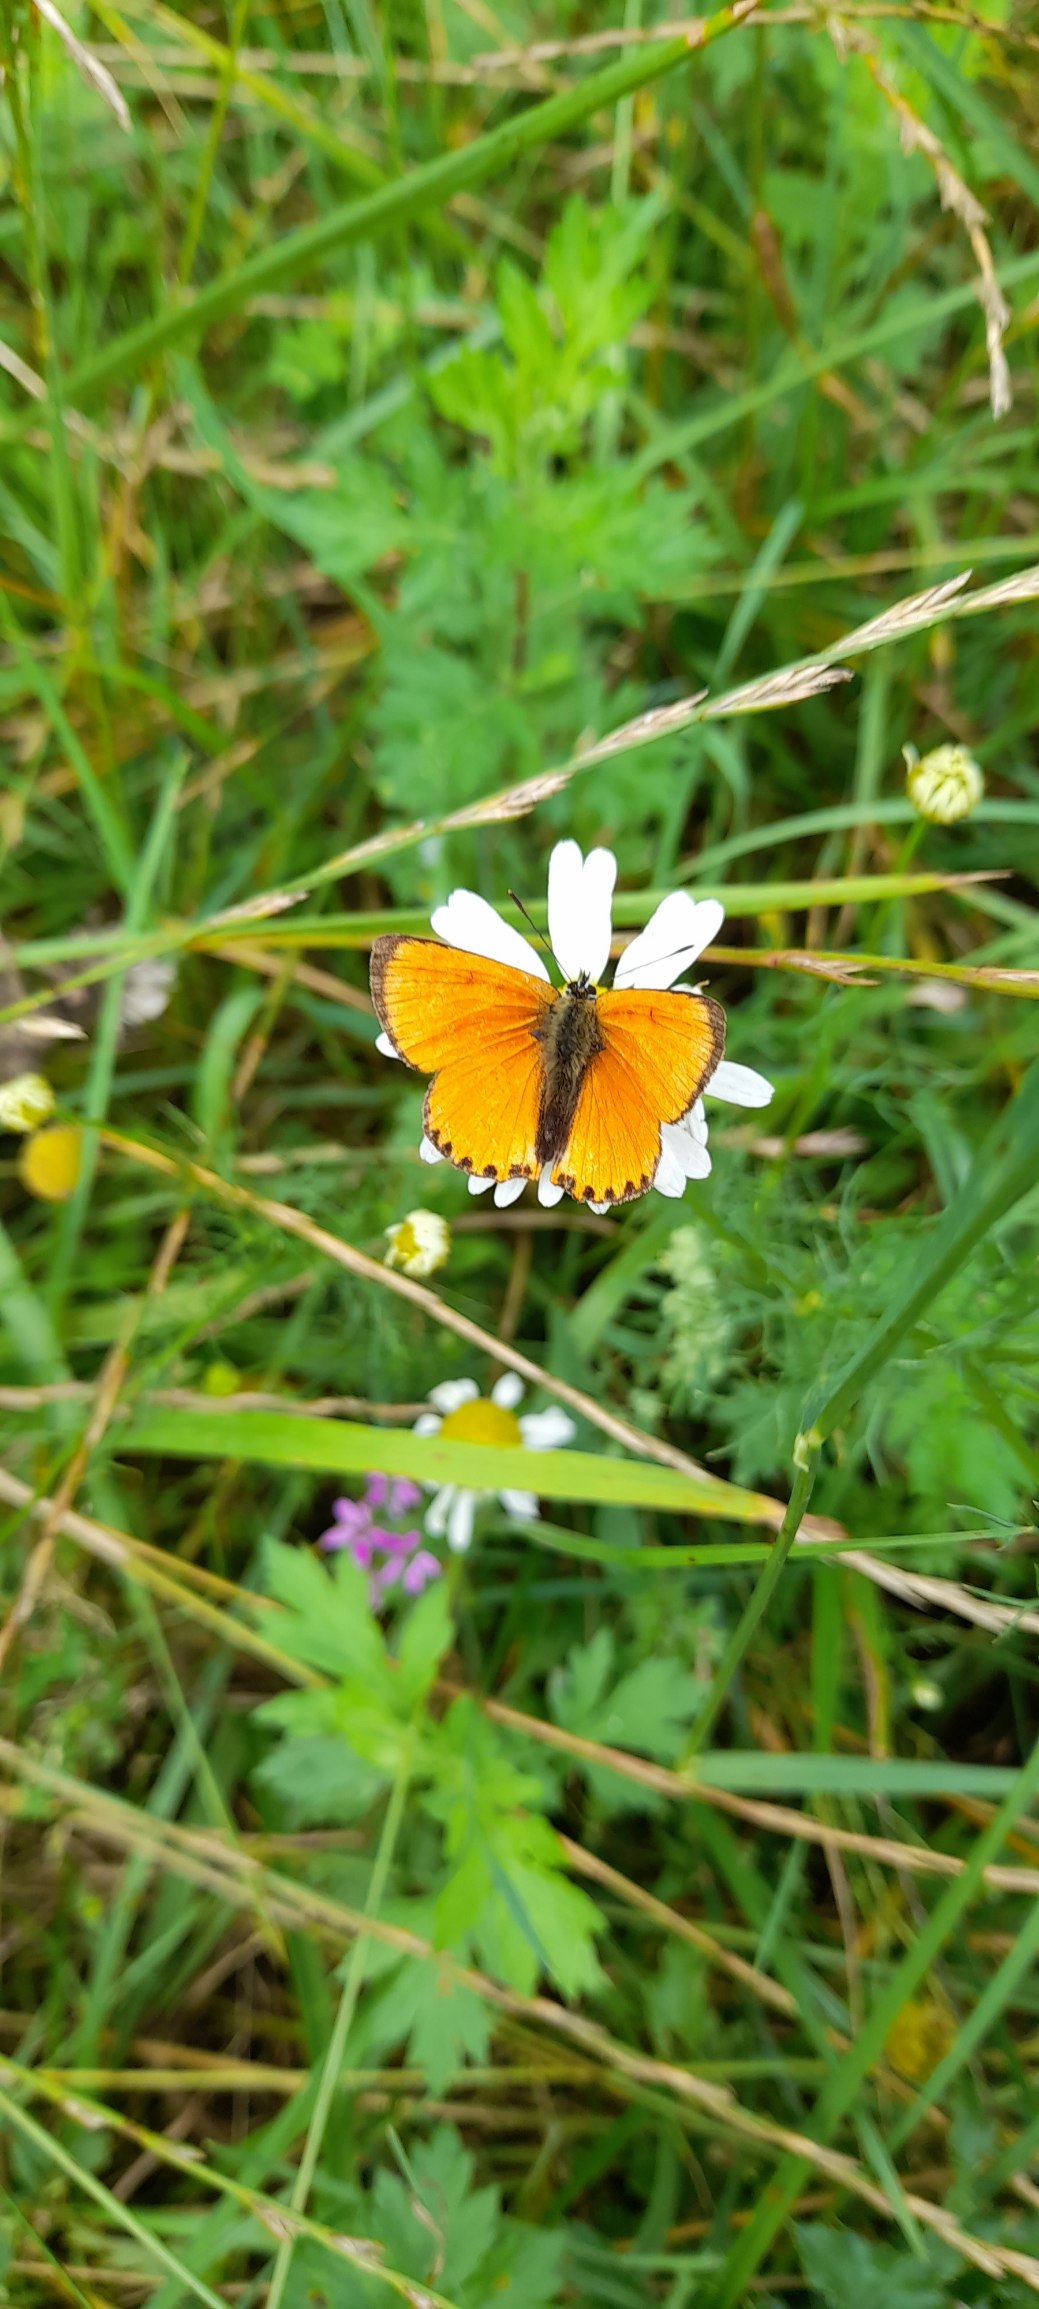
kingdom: Animalia
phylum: Arthropoda
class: Insecta
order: Lepidoptera
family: Lycaenidae
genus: Lycaena
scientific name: Lycaena virgaureae
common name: Dukatsommerfugl
